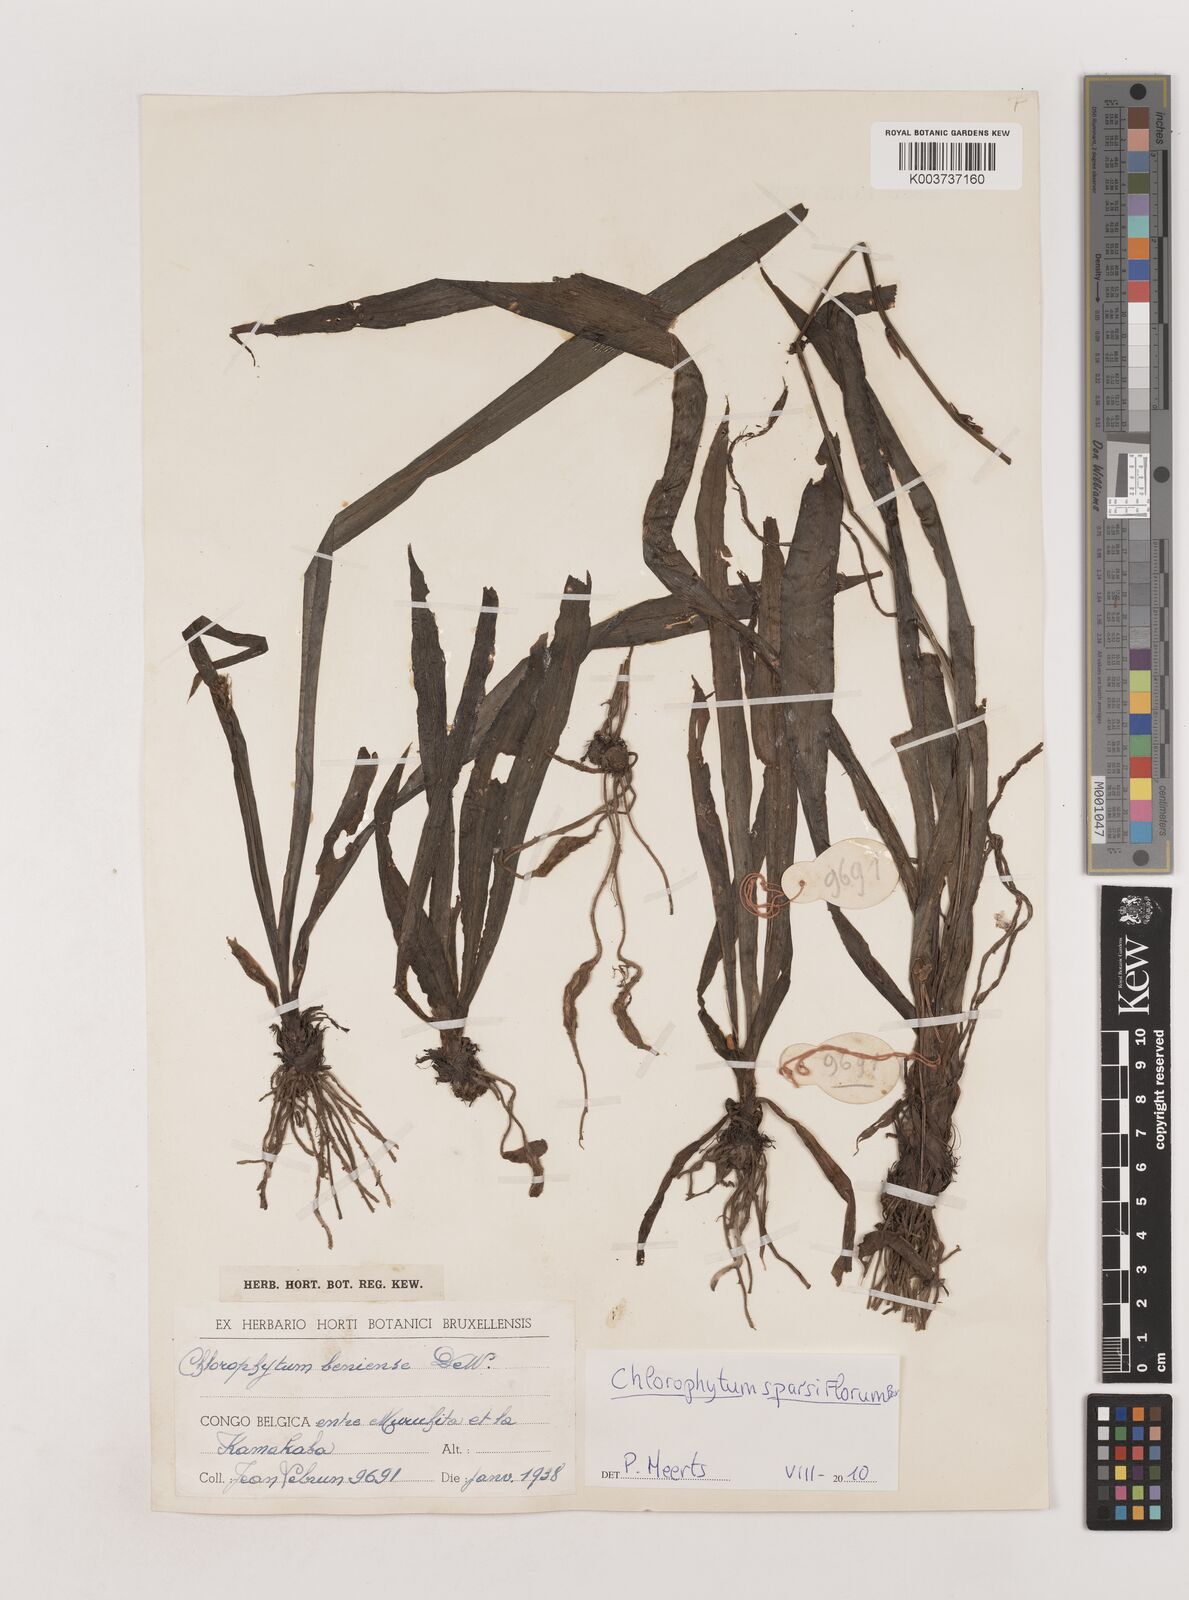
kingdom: Plantae
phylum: Tracheophyta
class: Liliopsida
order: Asparagales
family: Asparagaceae
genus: Chlorophytum
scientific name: Chlorophytum sparsiflorum
